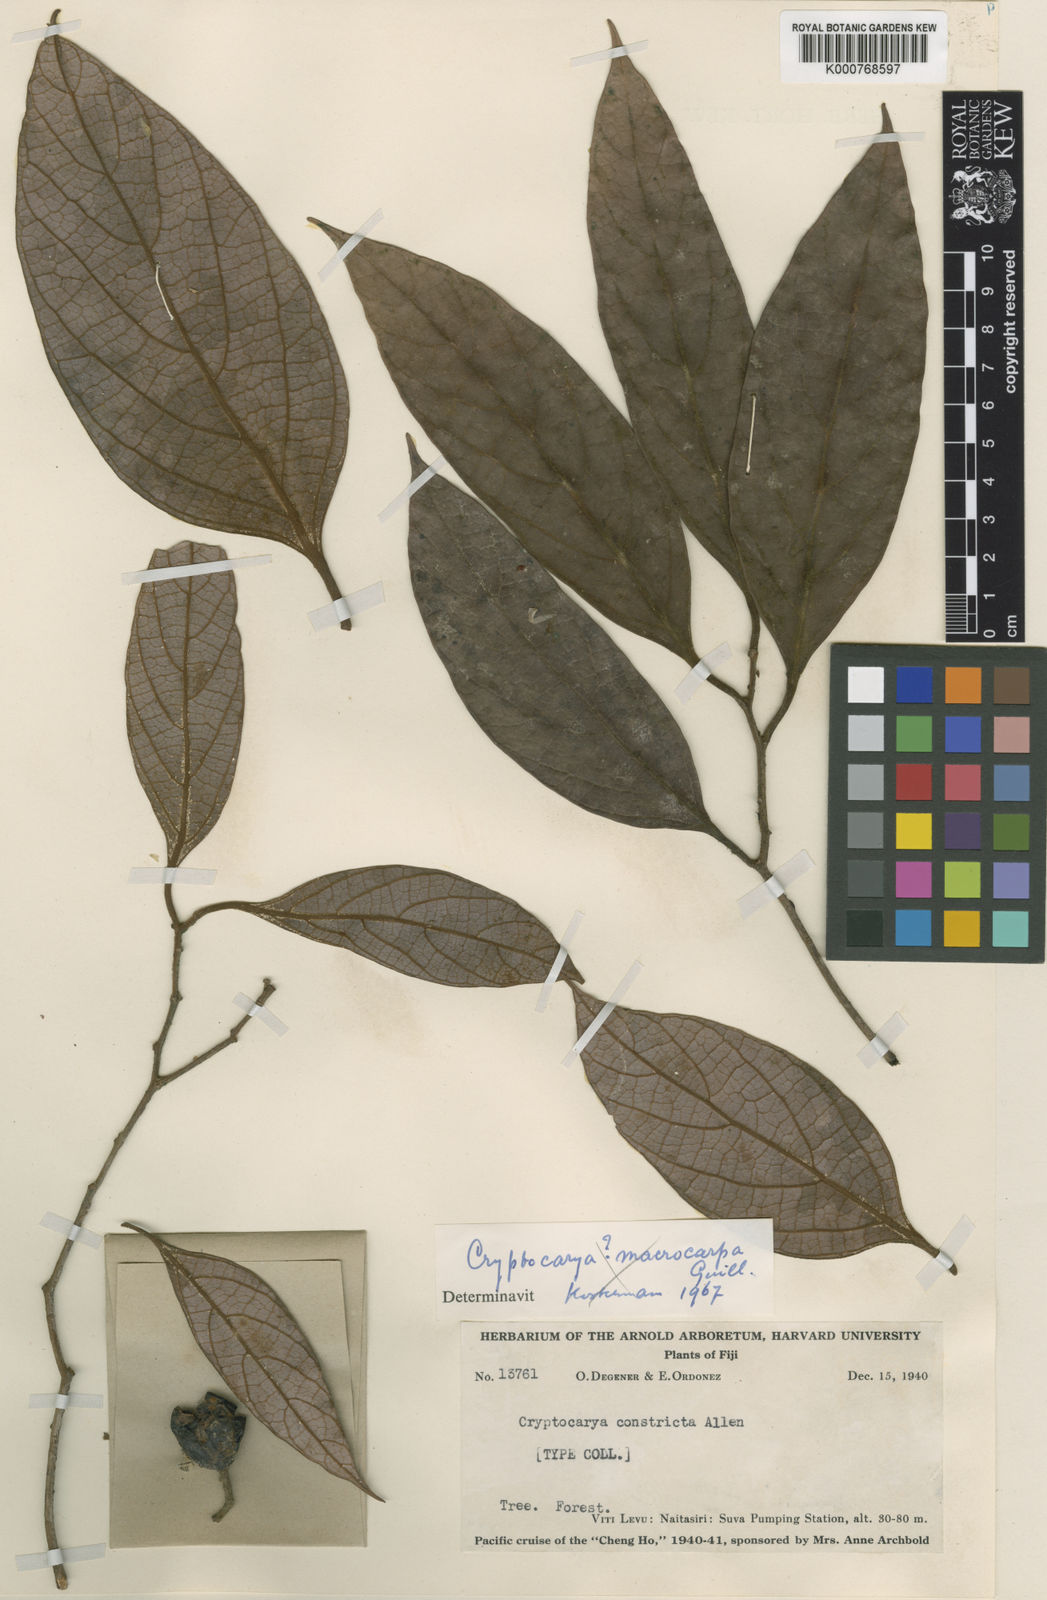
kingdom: Plantae
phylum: Tracheophyta
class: Magnoliopsida
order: Laurales
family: Lauraceae
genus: Cryptocarya
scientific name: Cryptocarya constricta
